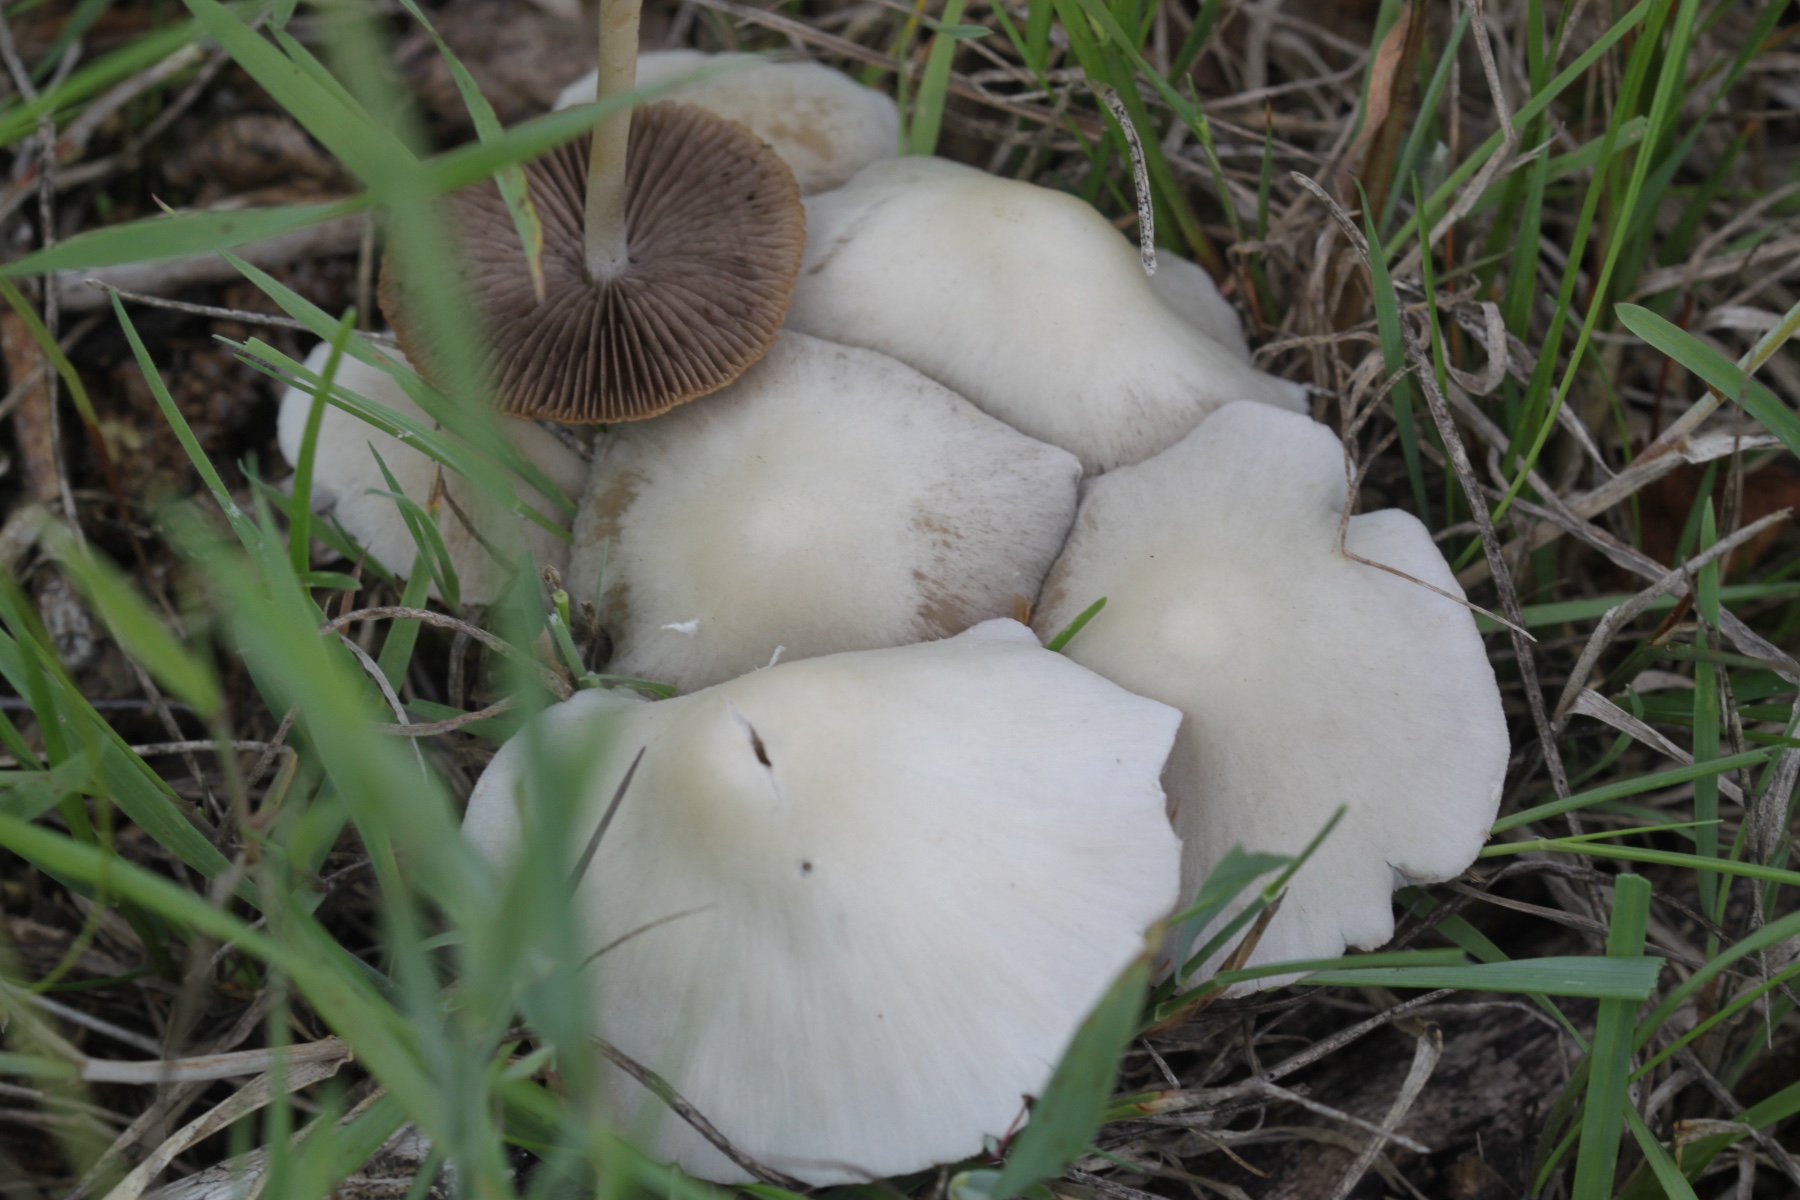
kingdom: Fungi
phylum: Basidiomycota
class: Agaricomycetes
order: Agaricales
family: Psathyrellaceae
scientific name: Psathyrellaceae
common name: mørkhatfamilien
